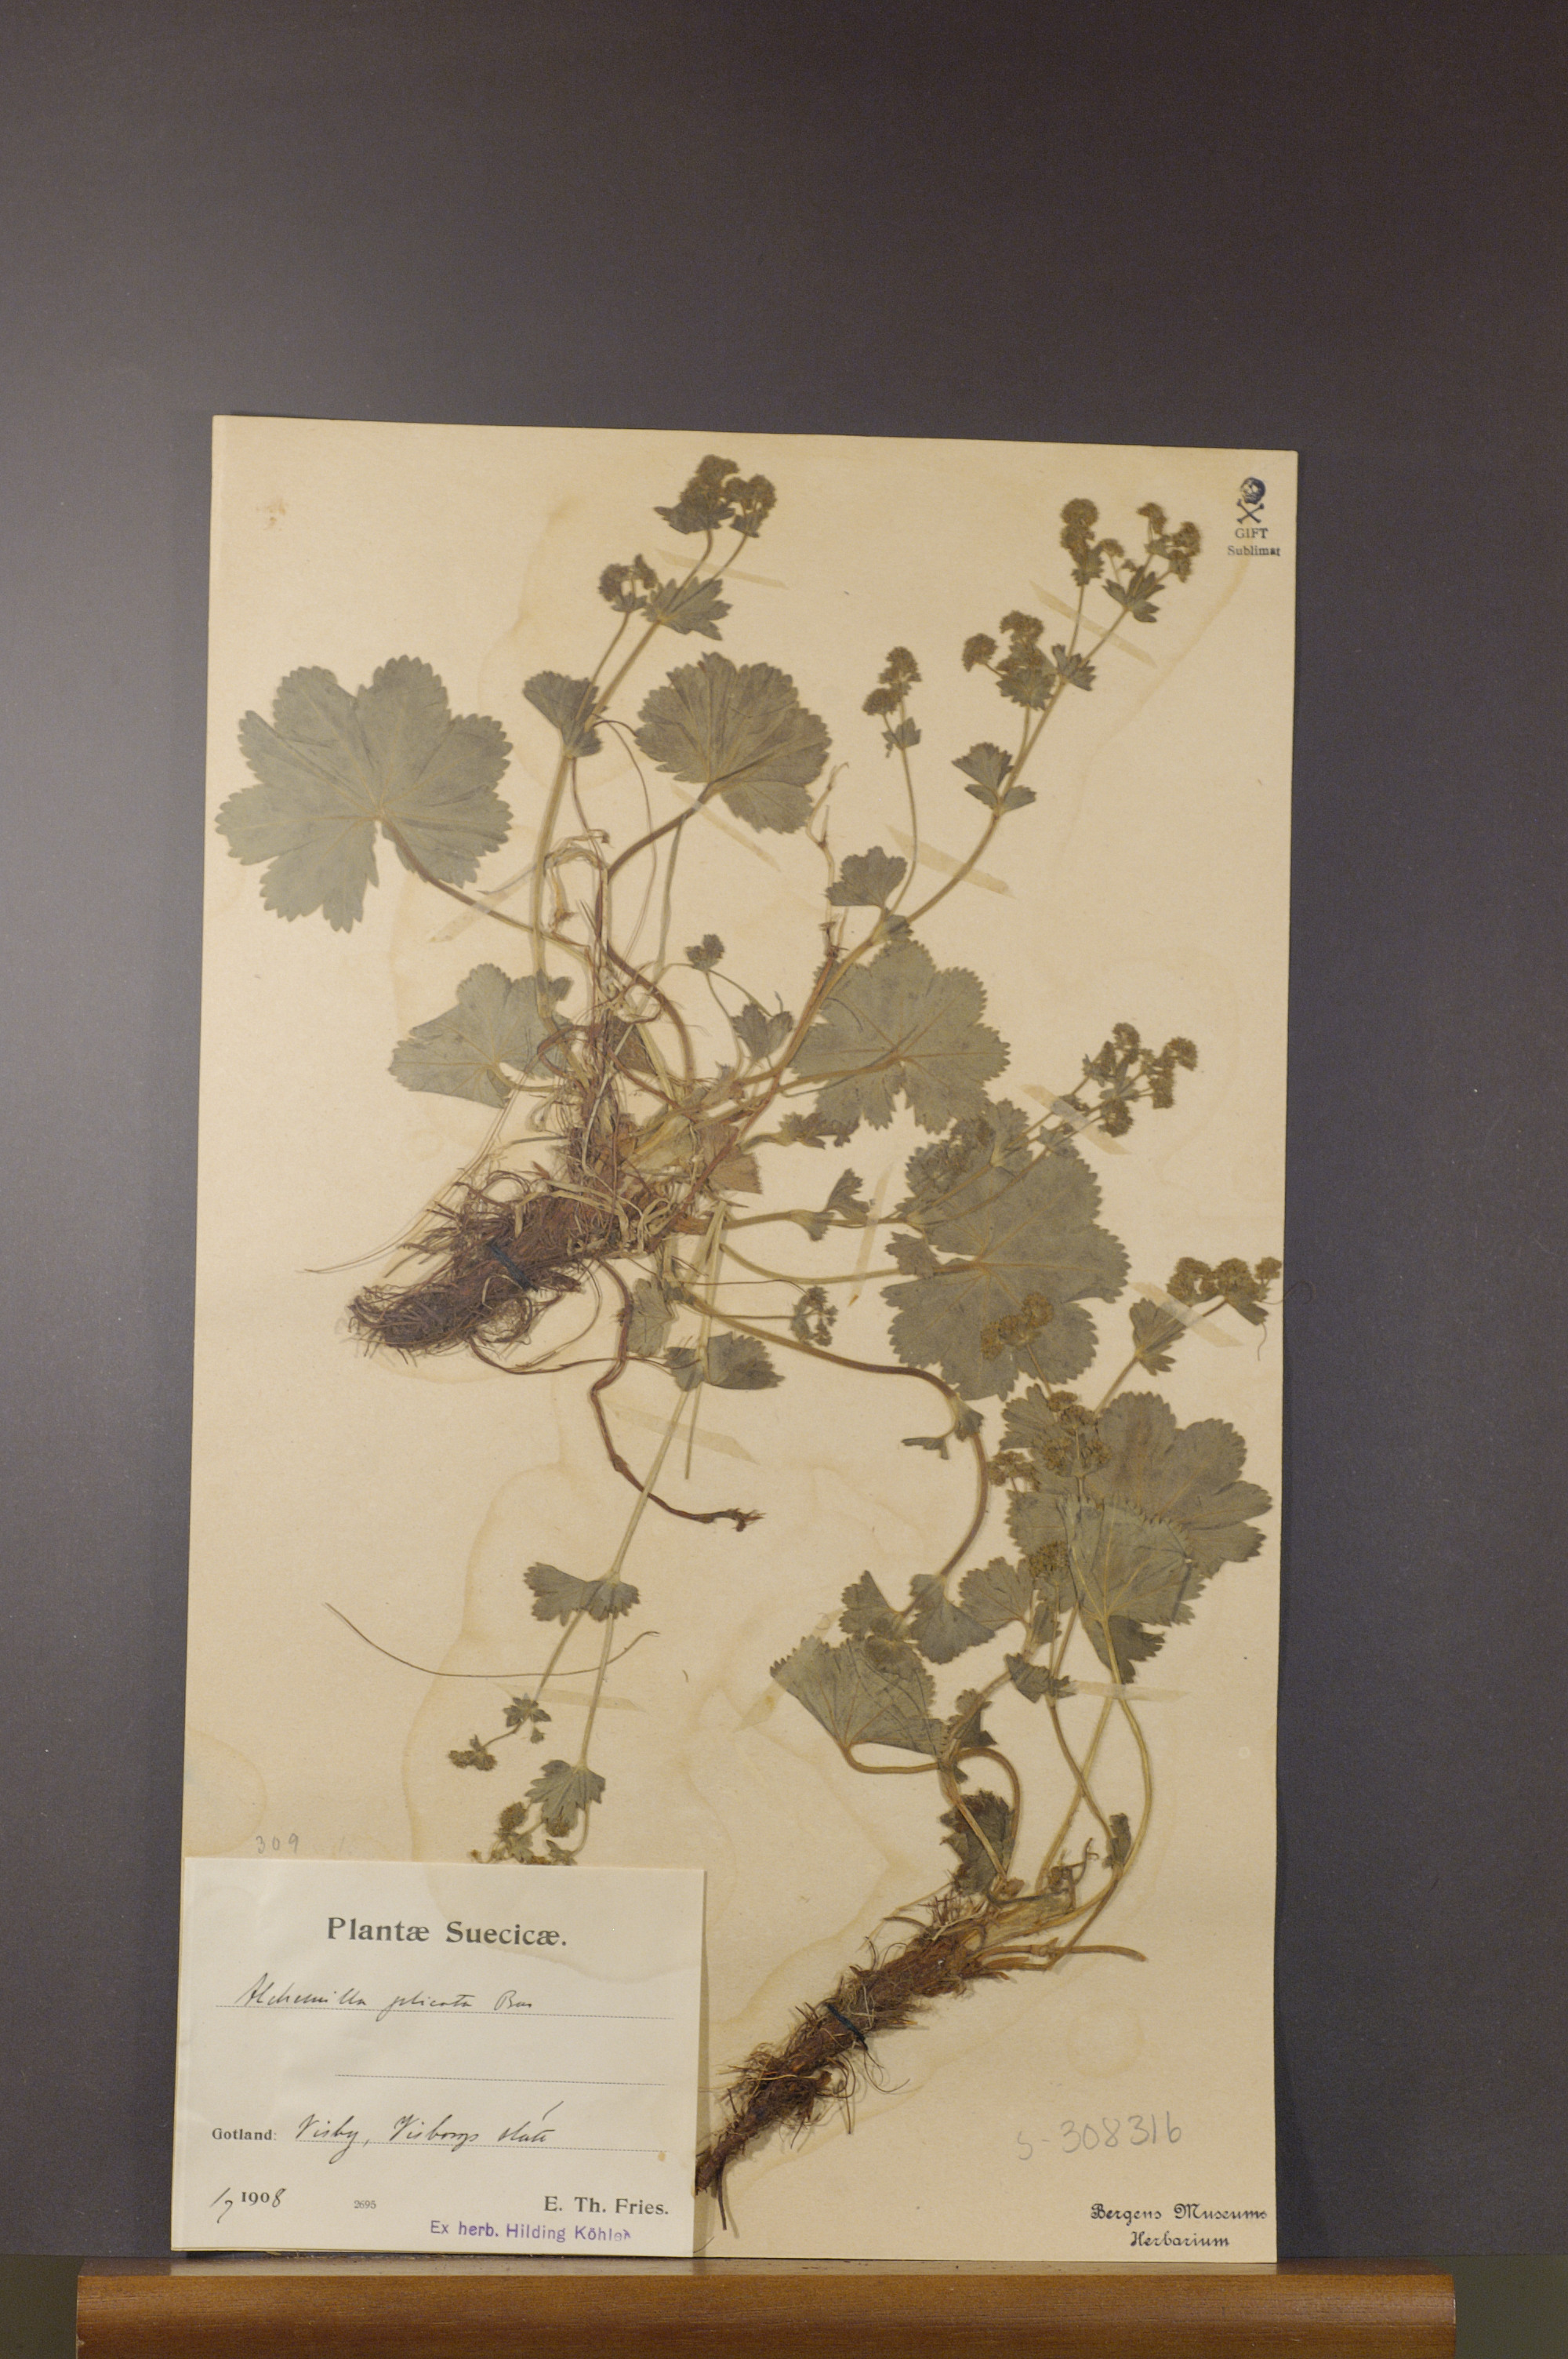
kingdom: Plantae
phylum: Tracheophyta
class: Magnoliopsida
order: Rosales
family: Rosaceae
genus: Alchemilla
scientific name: Alchemilla plicata
